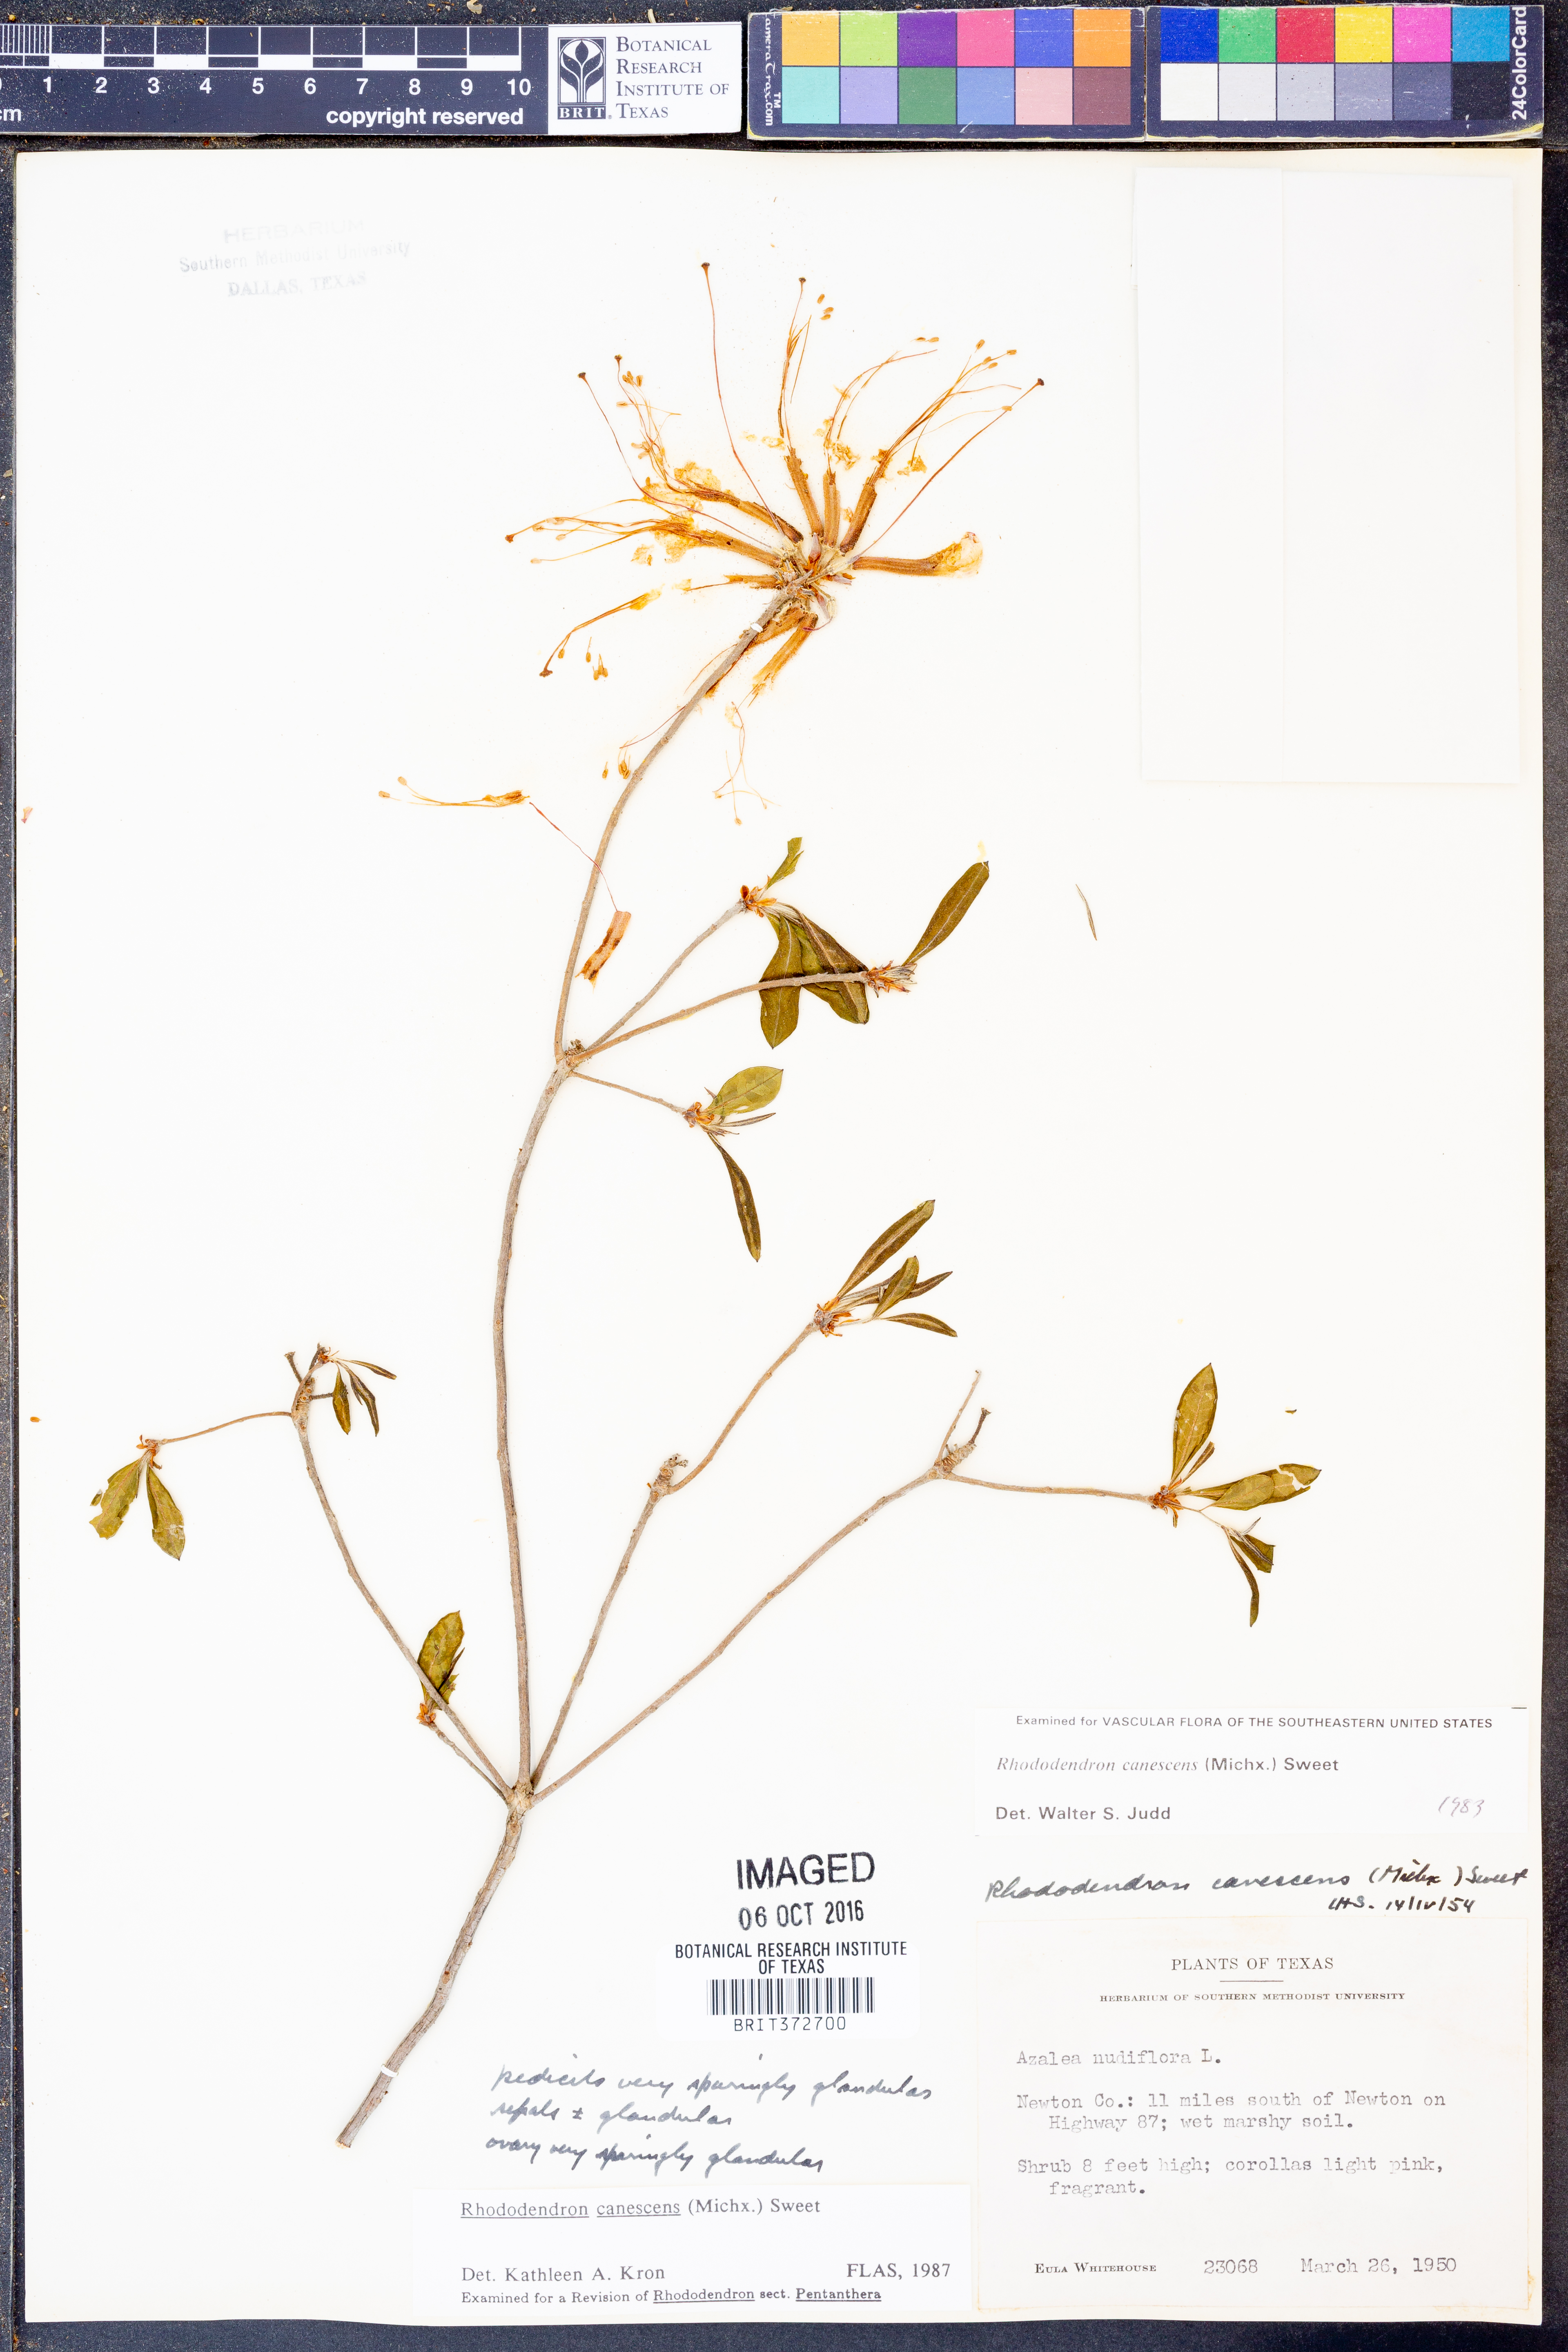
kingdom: Plantae
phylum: Tracheophyta
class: Magnoliopsida
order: Ericales
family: Ericaceae
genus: Rhododendron
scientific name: Rhododendron canescens
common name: Mountain azalea
